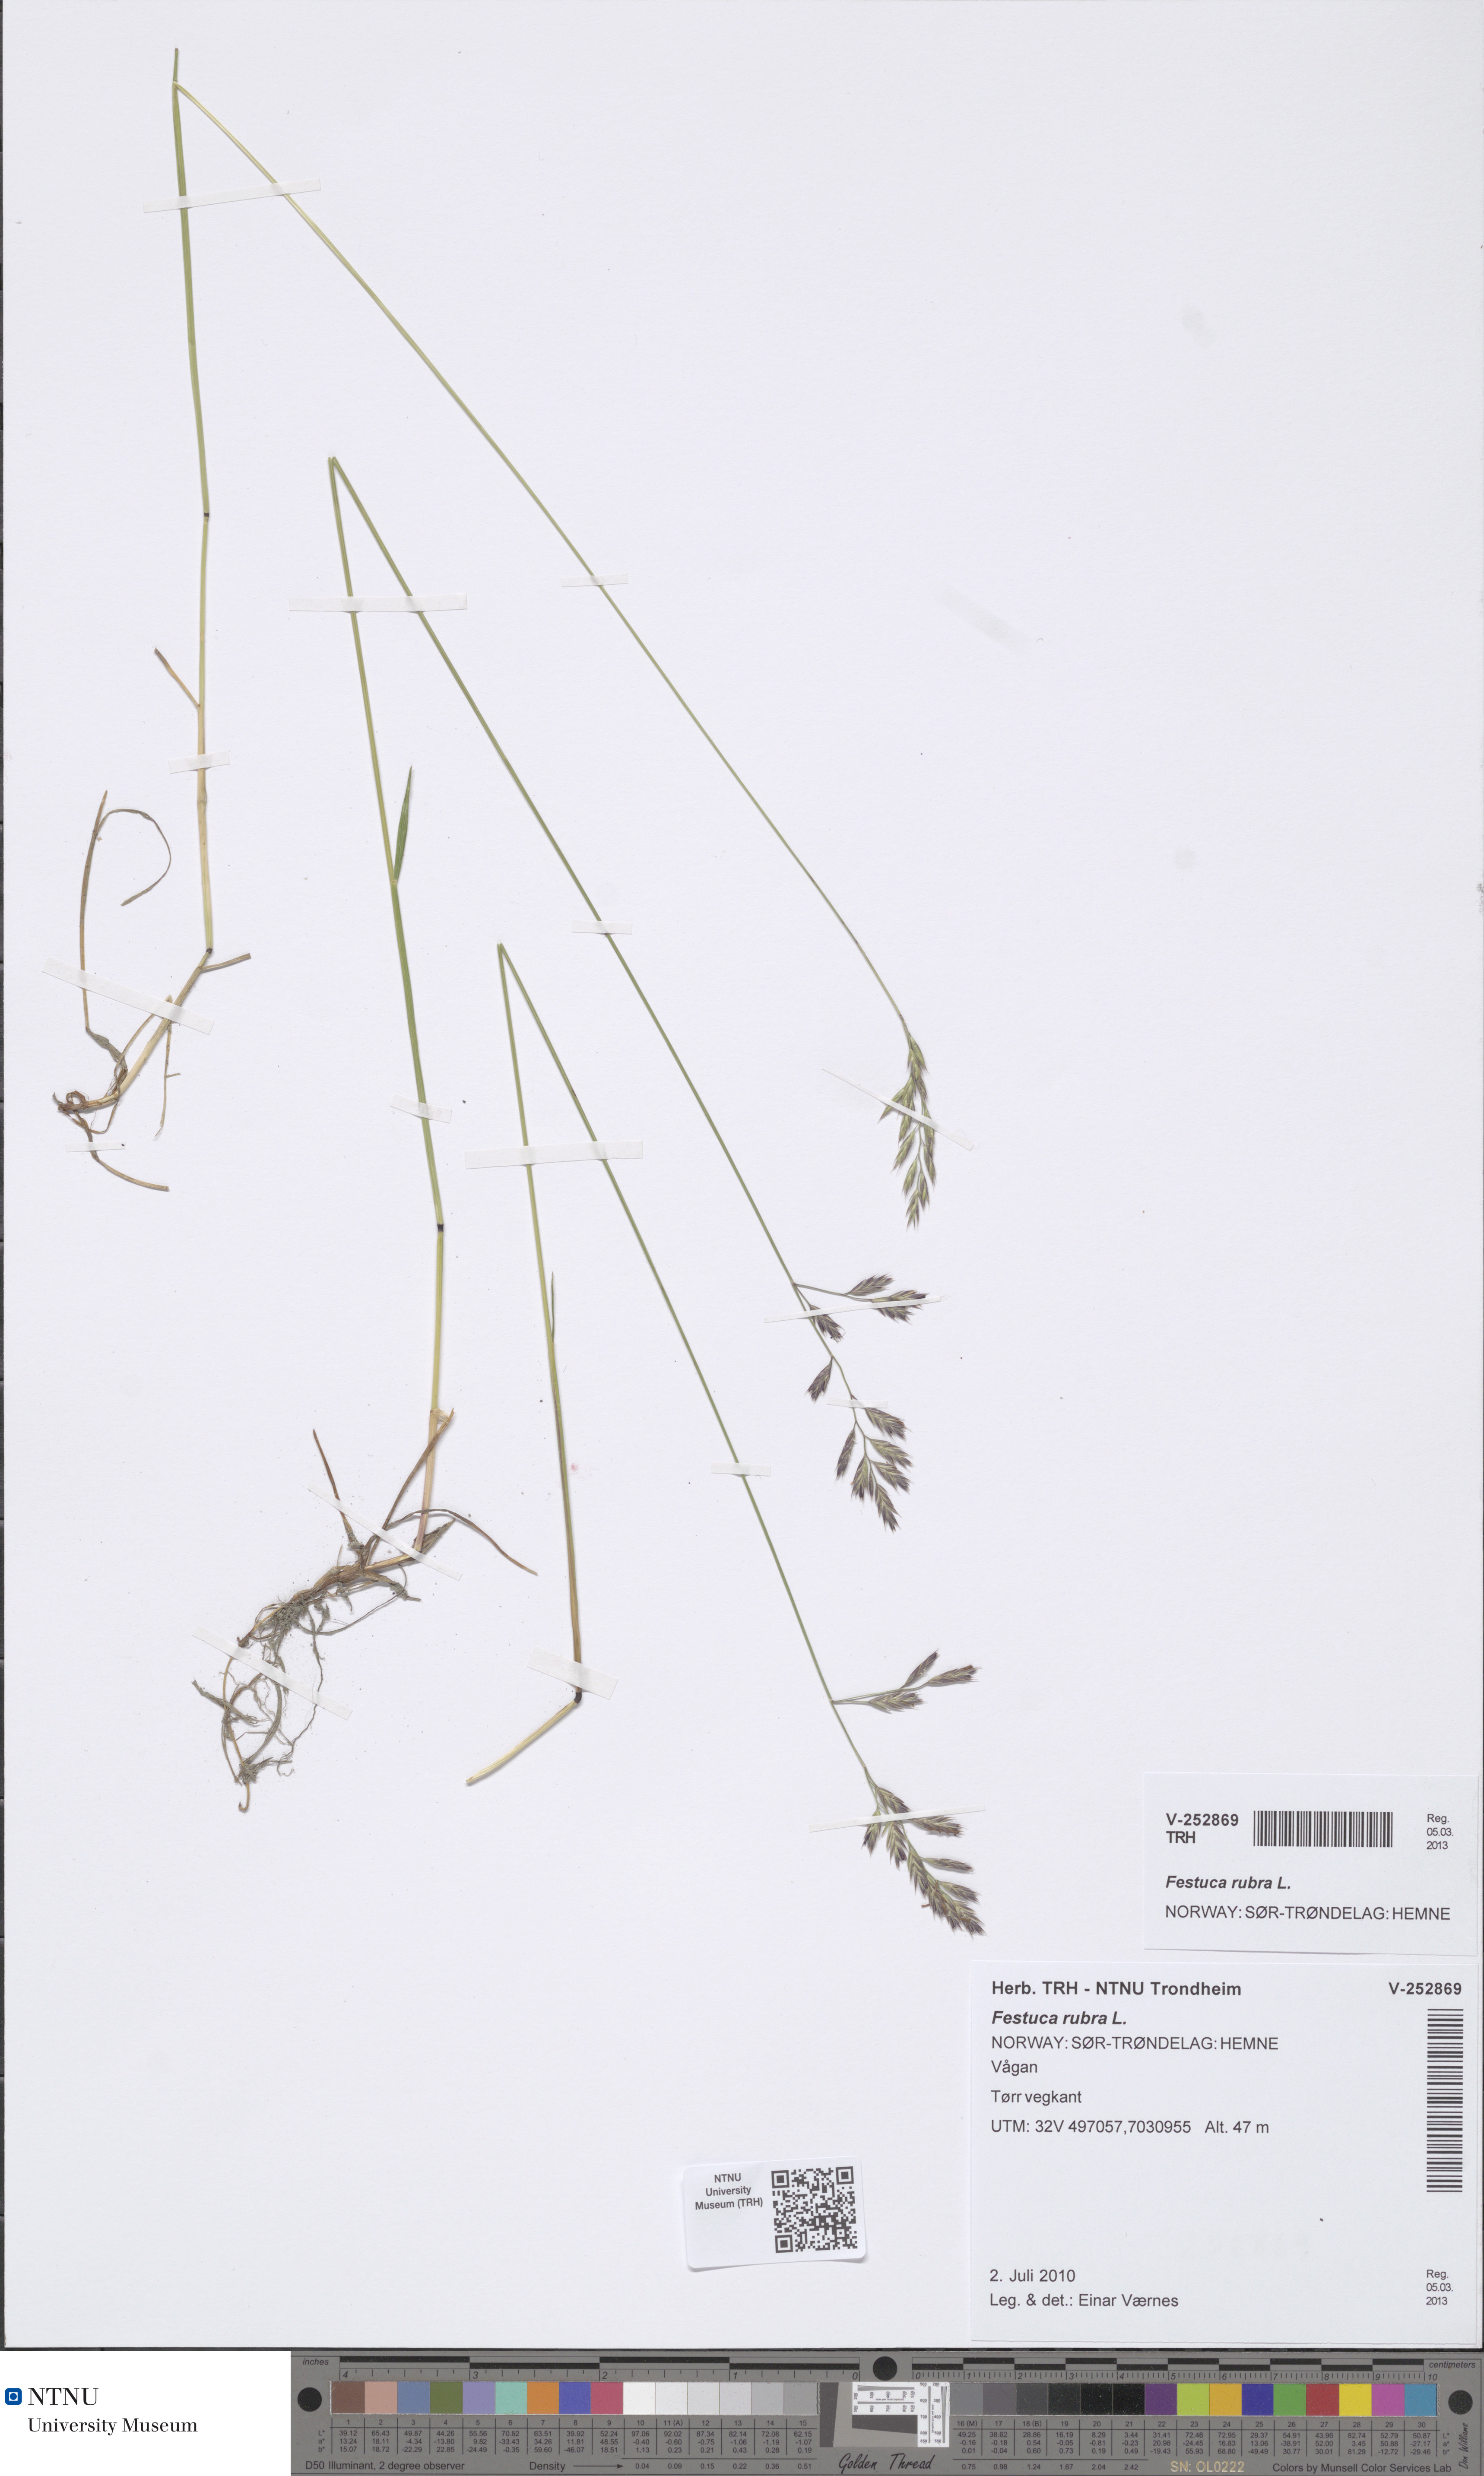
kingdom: Plantae
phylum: Tracheophyta
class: Liliopsida
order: Poales
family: Poaceae
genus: Festuca
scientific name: Festuca rubra
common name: Red fescue
